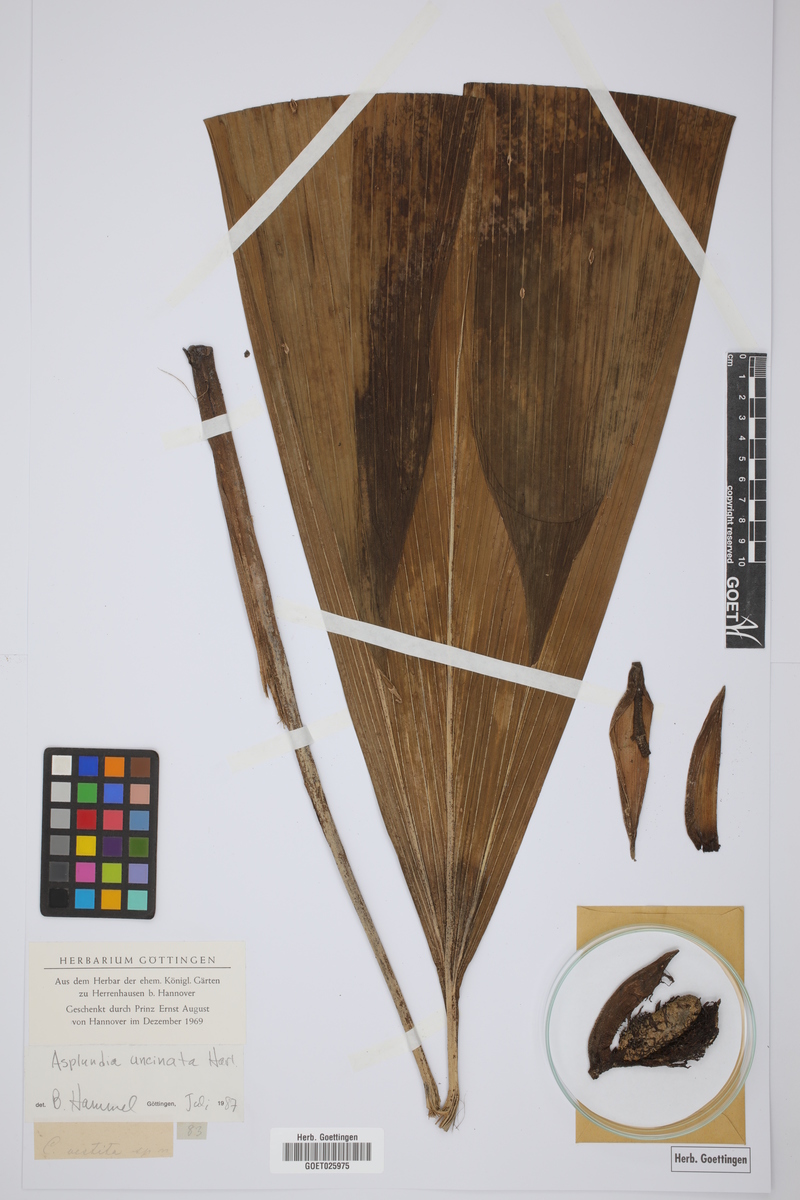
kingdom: Plantae
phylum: Tracheophyta
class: Liliopsida
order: Pandanales
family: Cyclanthaceae
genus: Asplundia
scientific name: Asplundia uncinata
